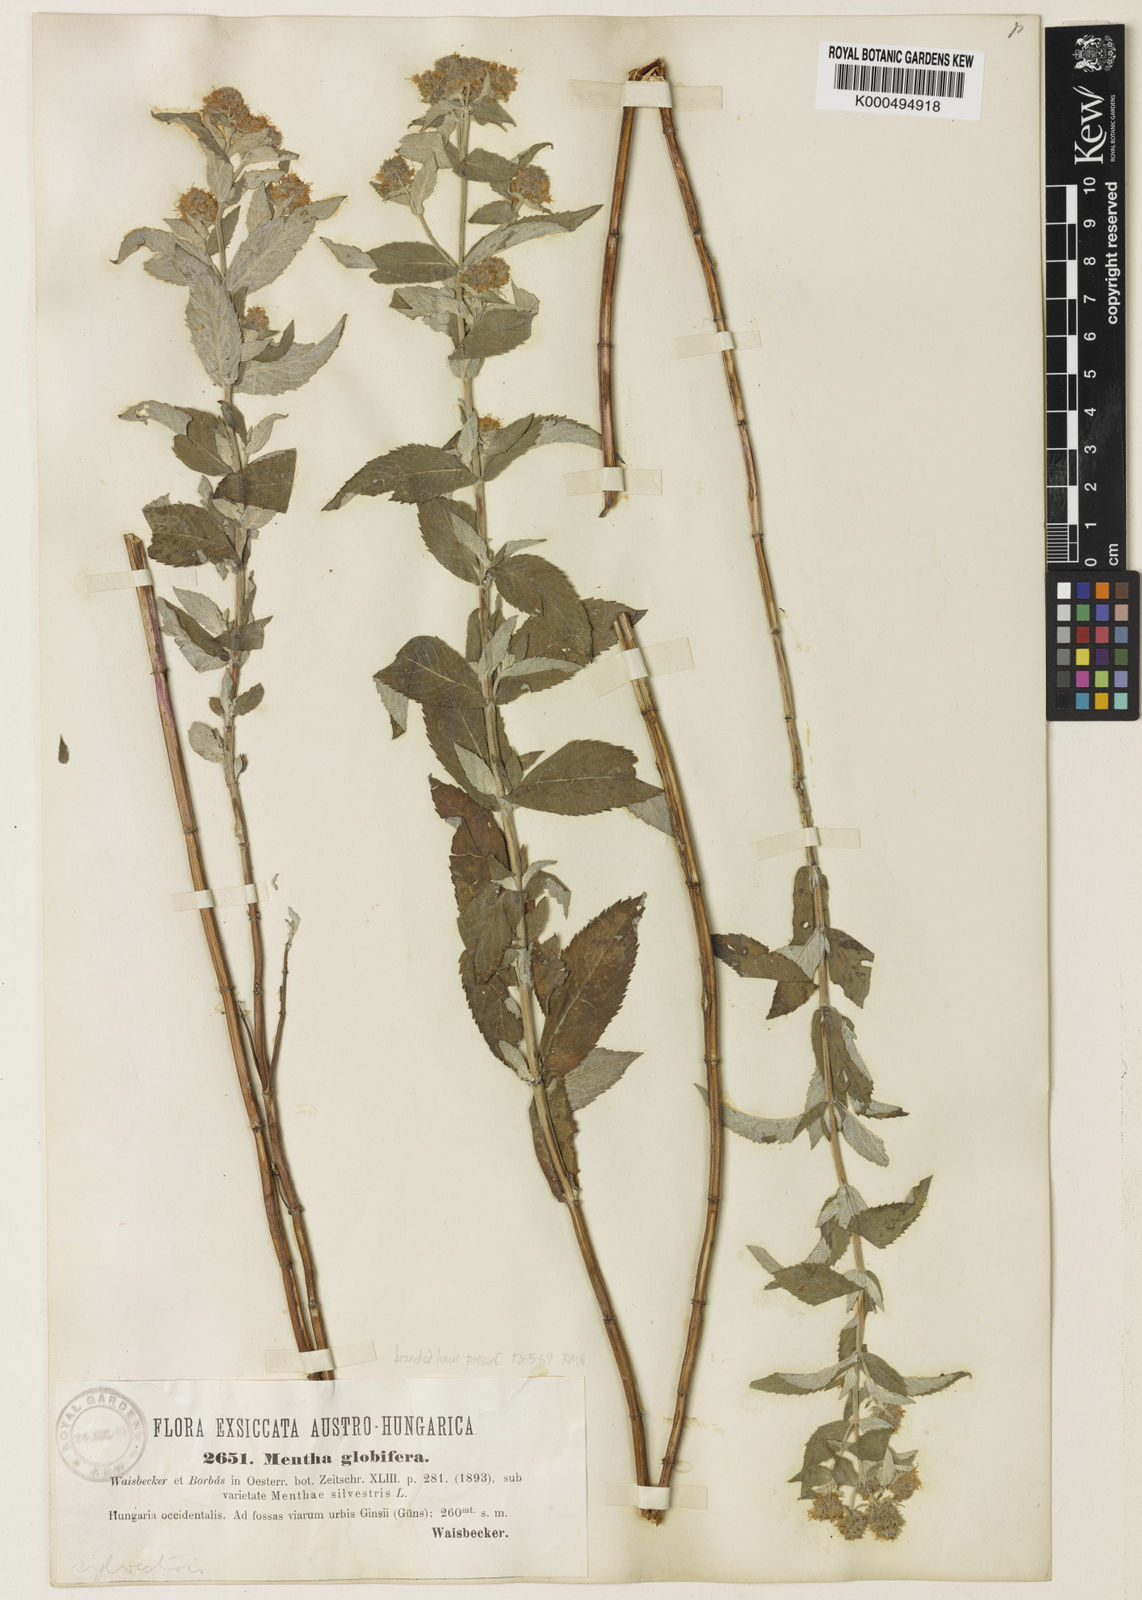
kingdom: Plantae
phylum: Tracheophyta
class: Magnoliopsida
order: Lamiales
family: Lamiaceae
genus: Mentha
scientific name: Mentha spicata
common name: Spearmint
